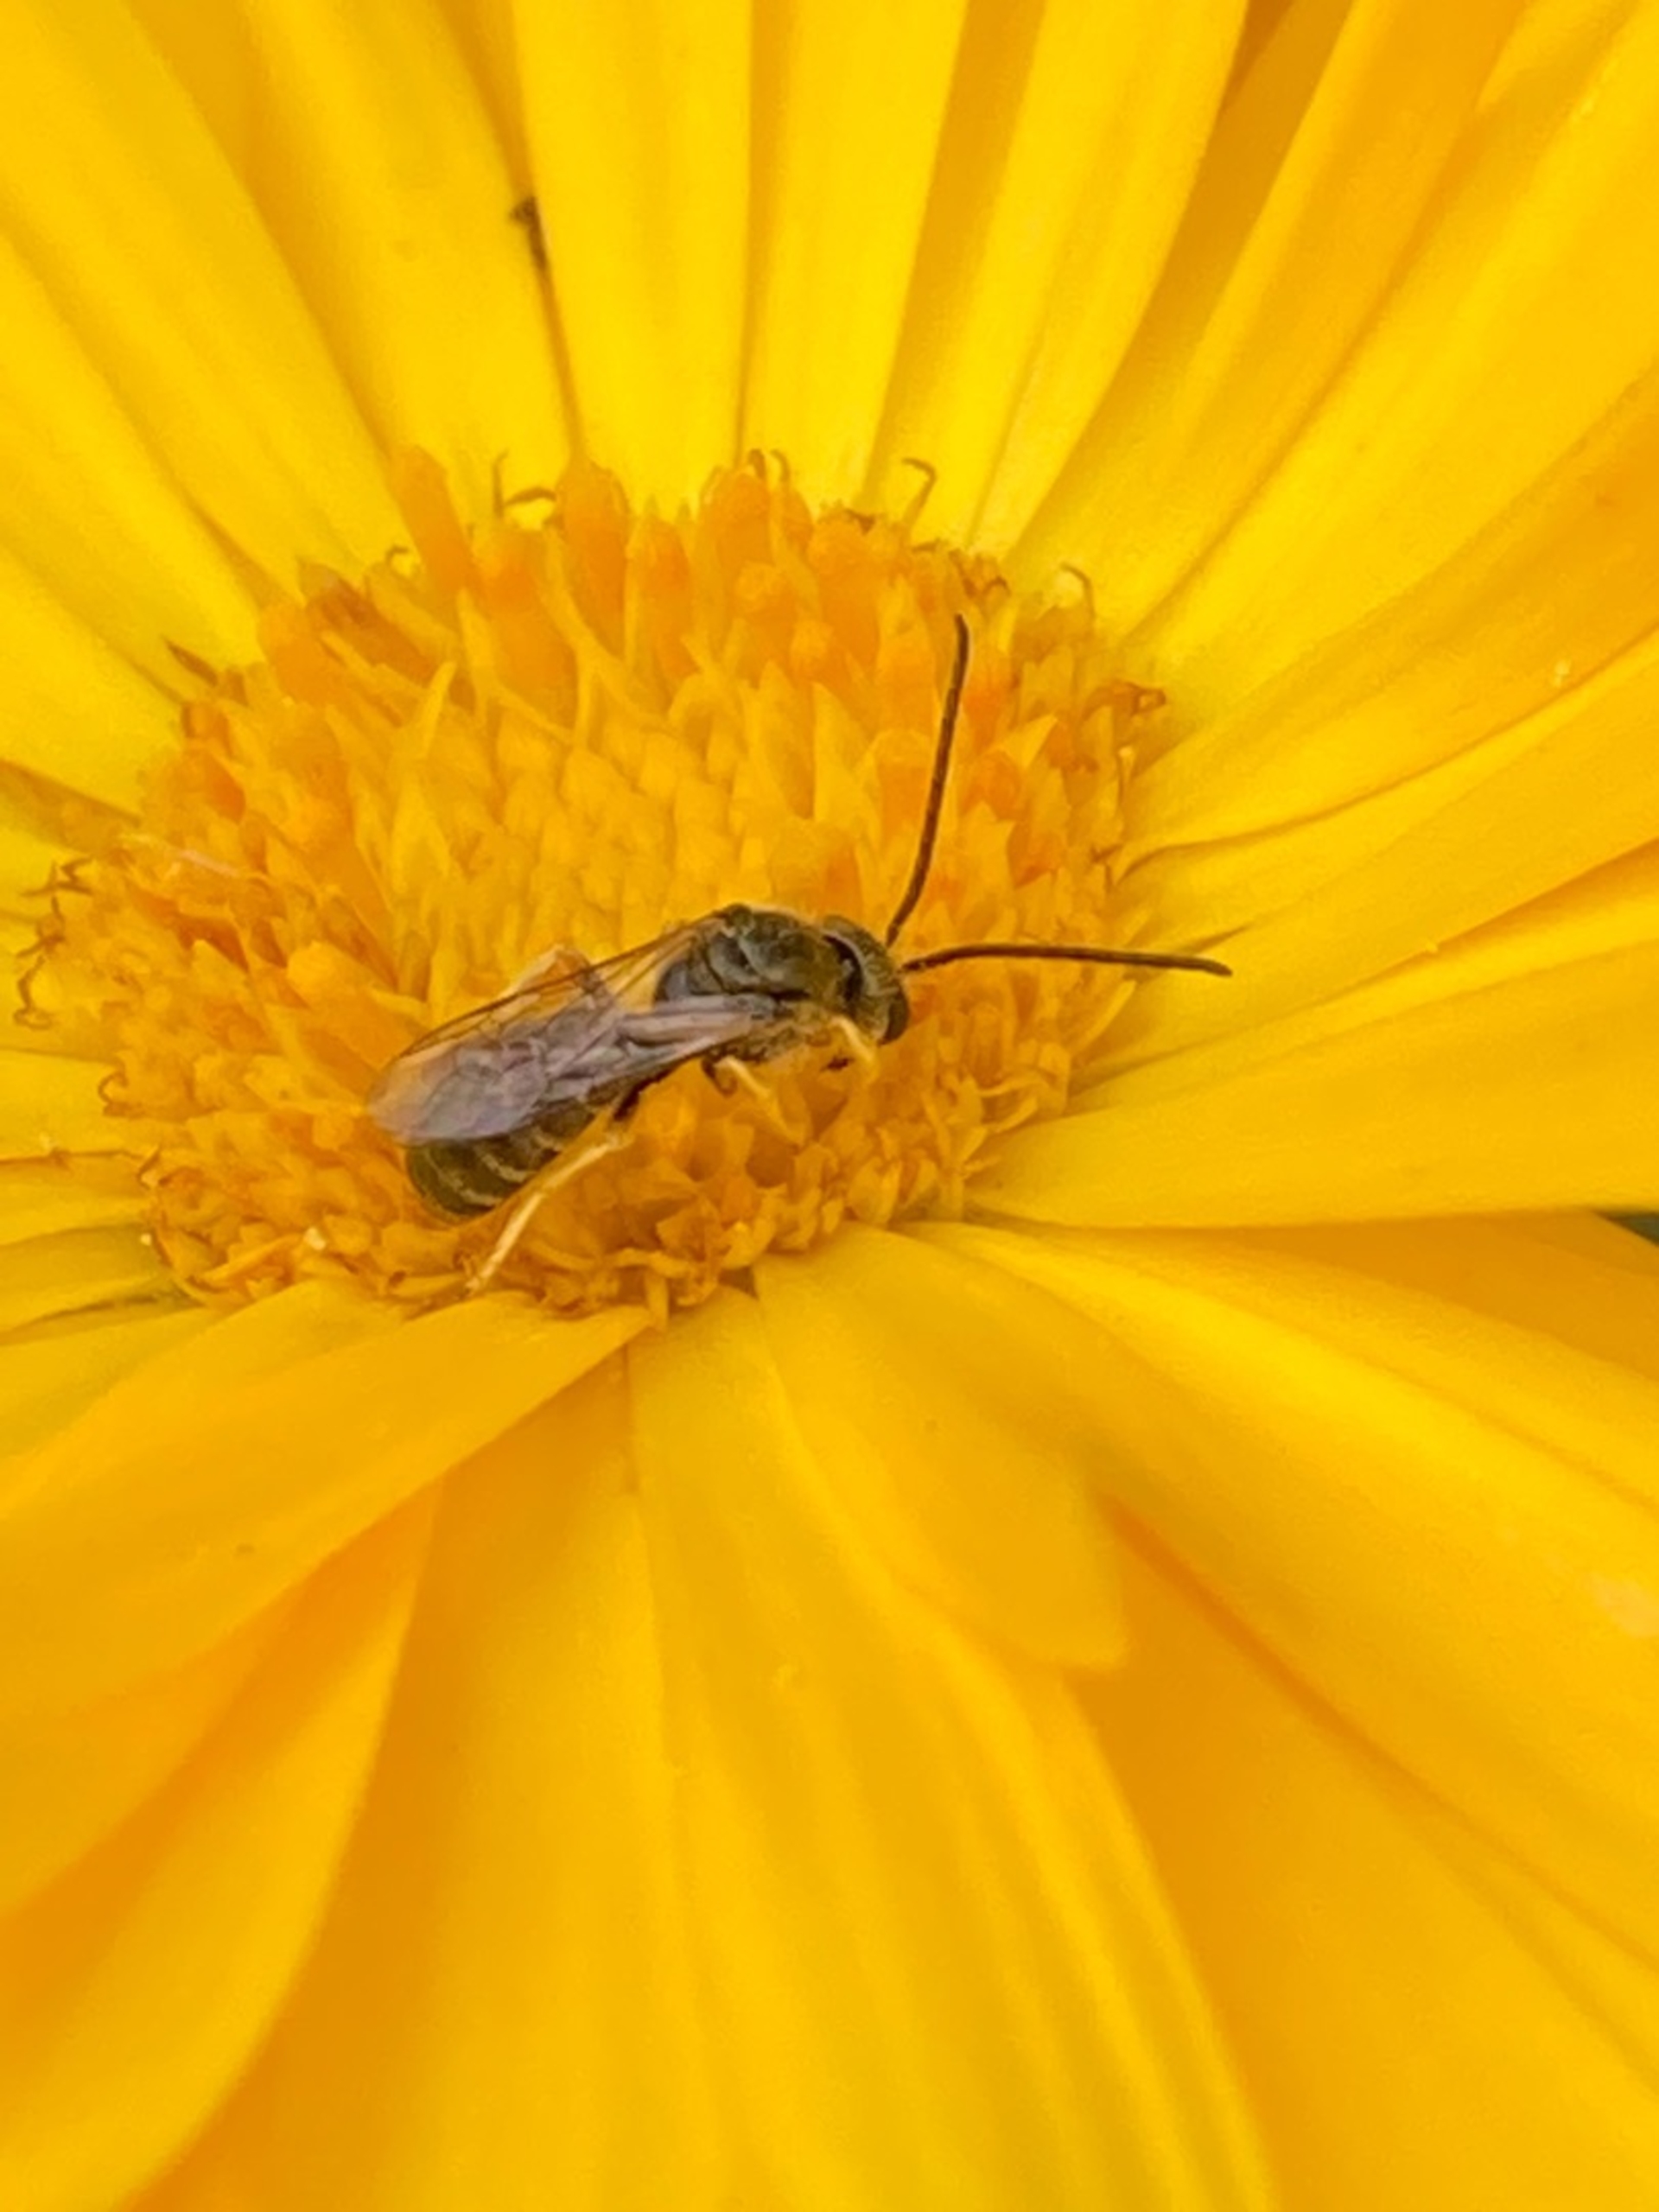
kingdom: Animalia
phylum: Arthropoda
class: Insecta
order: Hymenoptera
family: Halictidae
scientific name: Halictidae
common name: Vejbier
